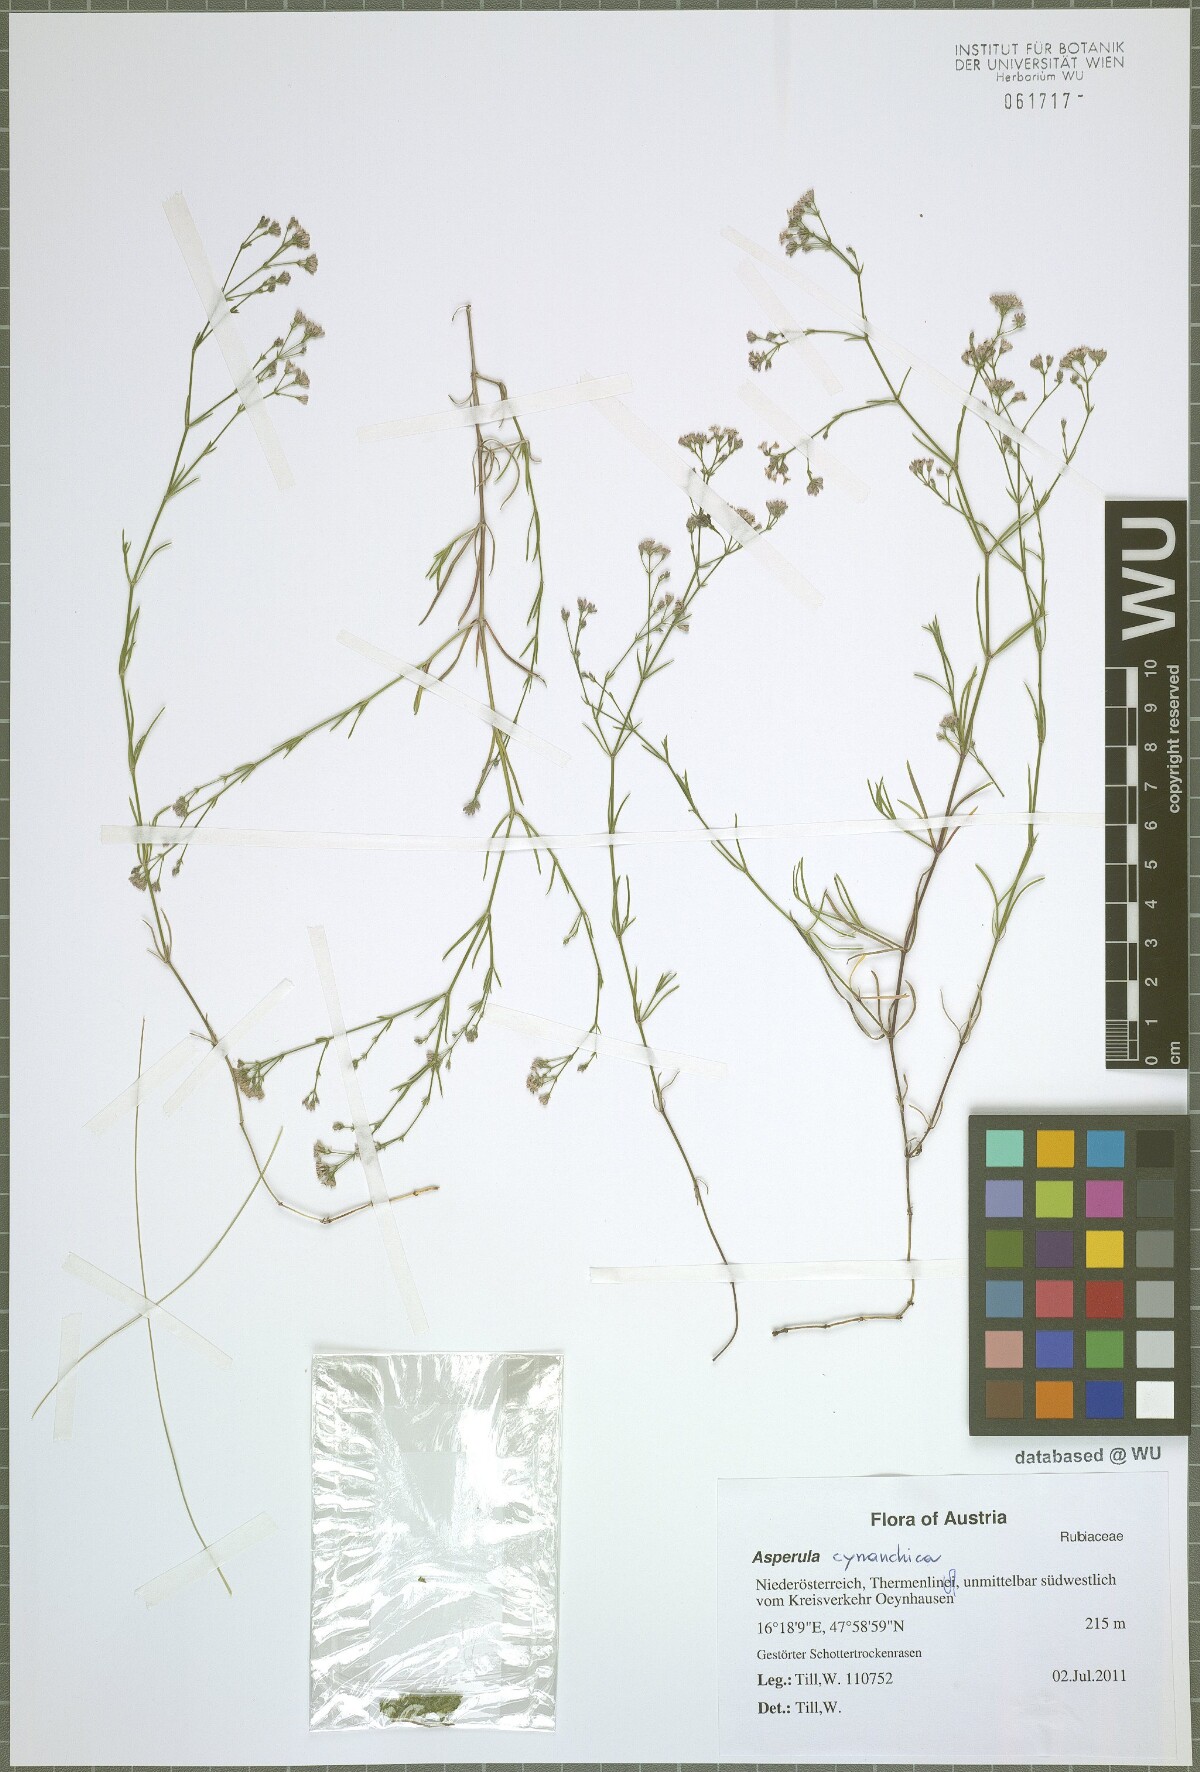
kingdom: Plantae
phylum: Tracheophyta
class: Magnoliopsida
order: Gentianales
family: Rubiaceae
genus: Cynanchica
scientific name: Cynanchica pyrenaica
